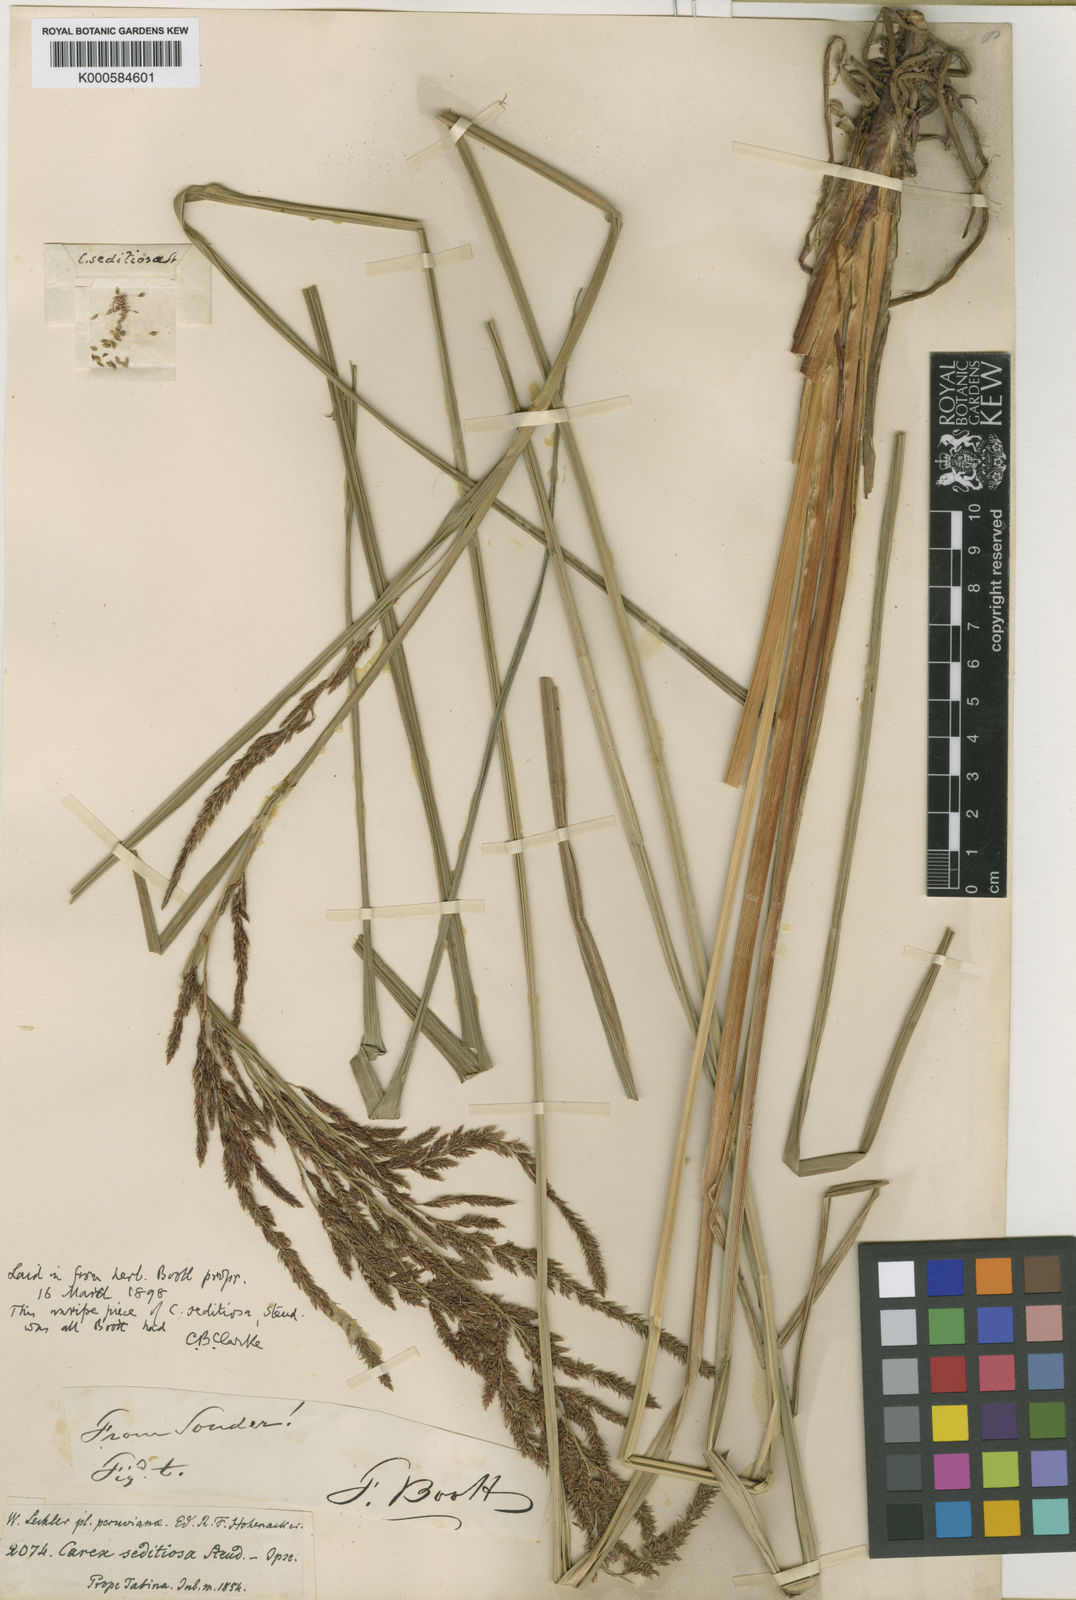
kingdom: Plantae
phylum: Tracheophyta
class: Liliopsida
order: Poales
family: Cyperaceae
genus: Carex
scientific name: Carex fecunda
